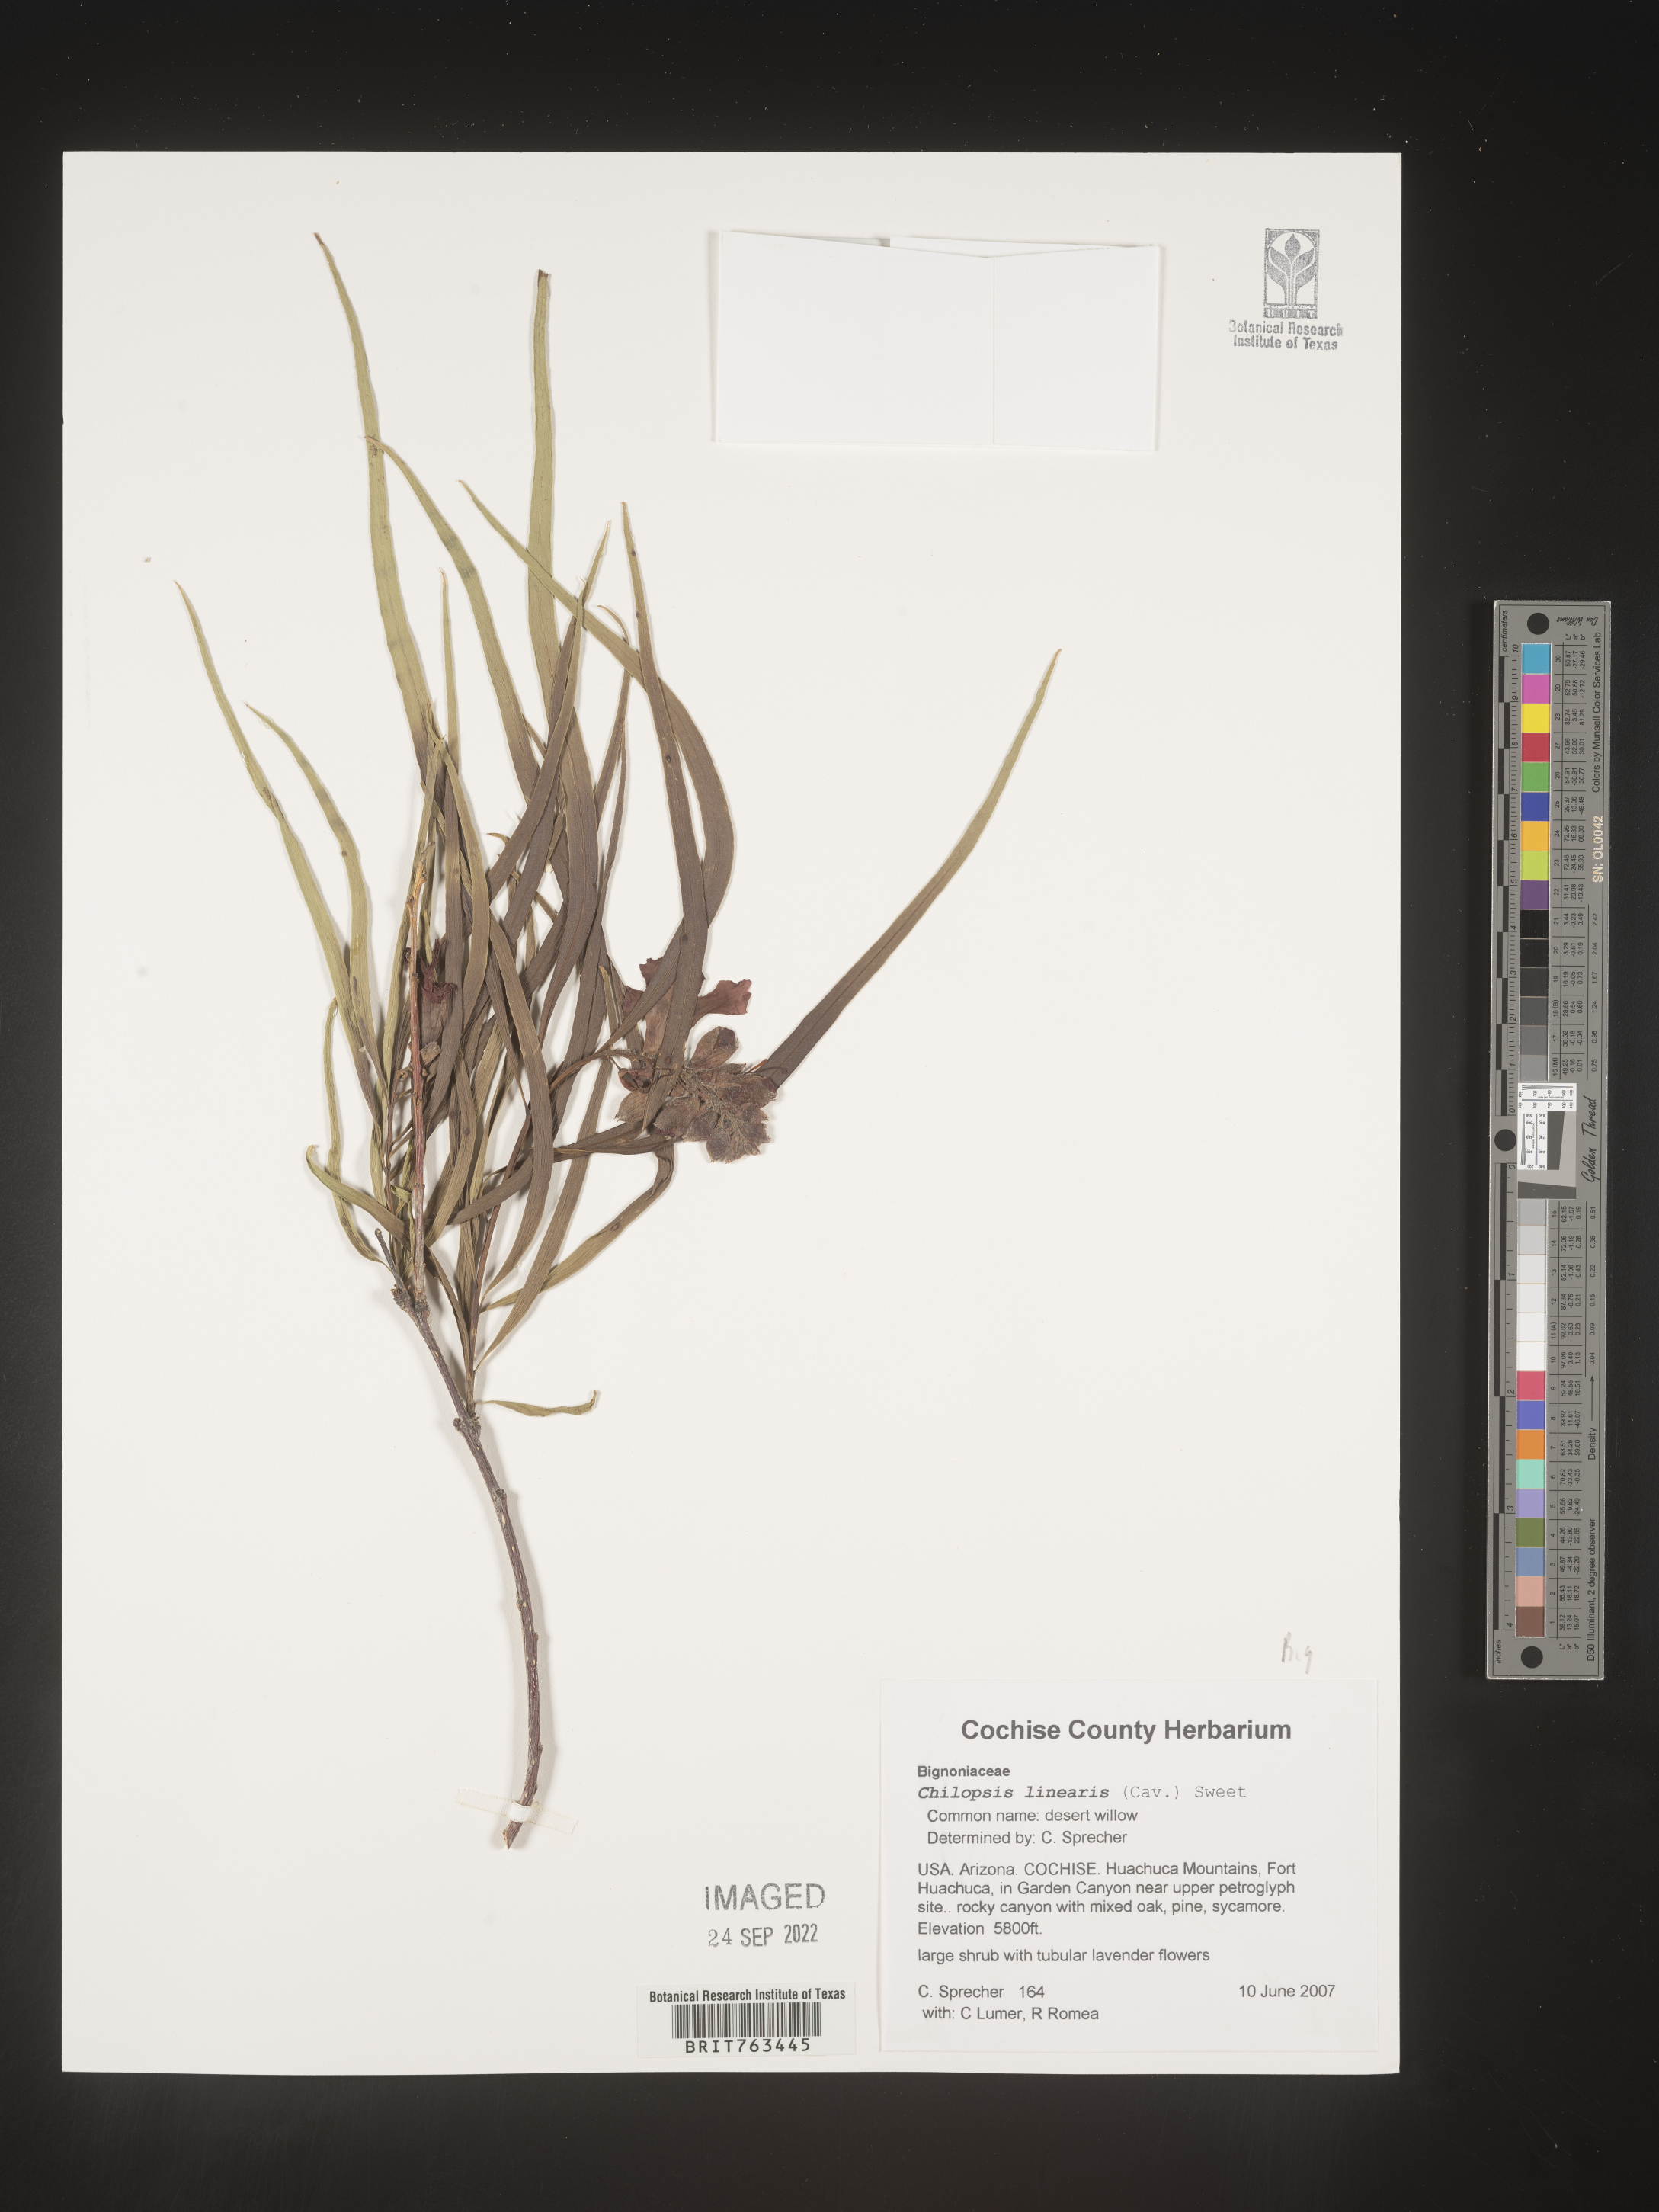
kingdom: Plantae
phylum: Tracheophyta
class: Magnoliopsida
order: Lamiales
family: Bignoniaceae
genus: Chilopsis
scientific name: Chilopsis linearis
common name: Desert-willow
